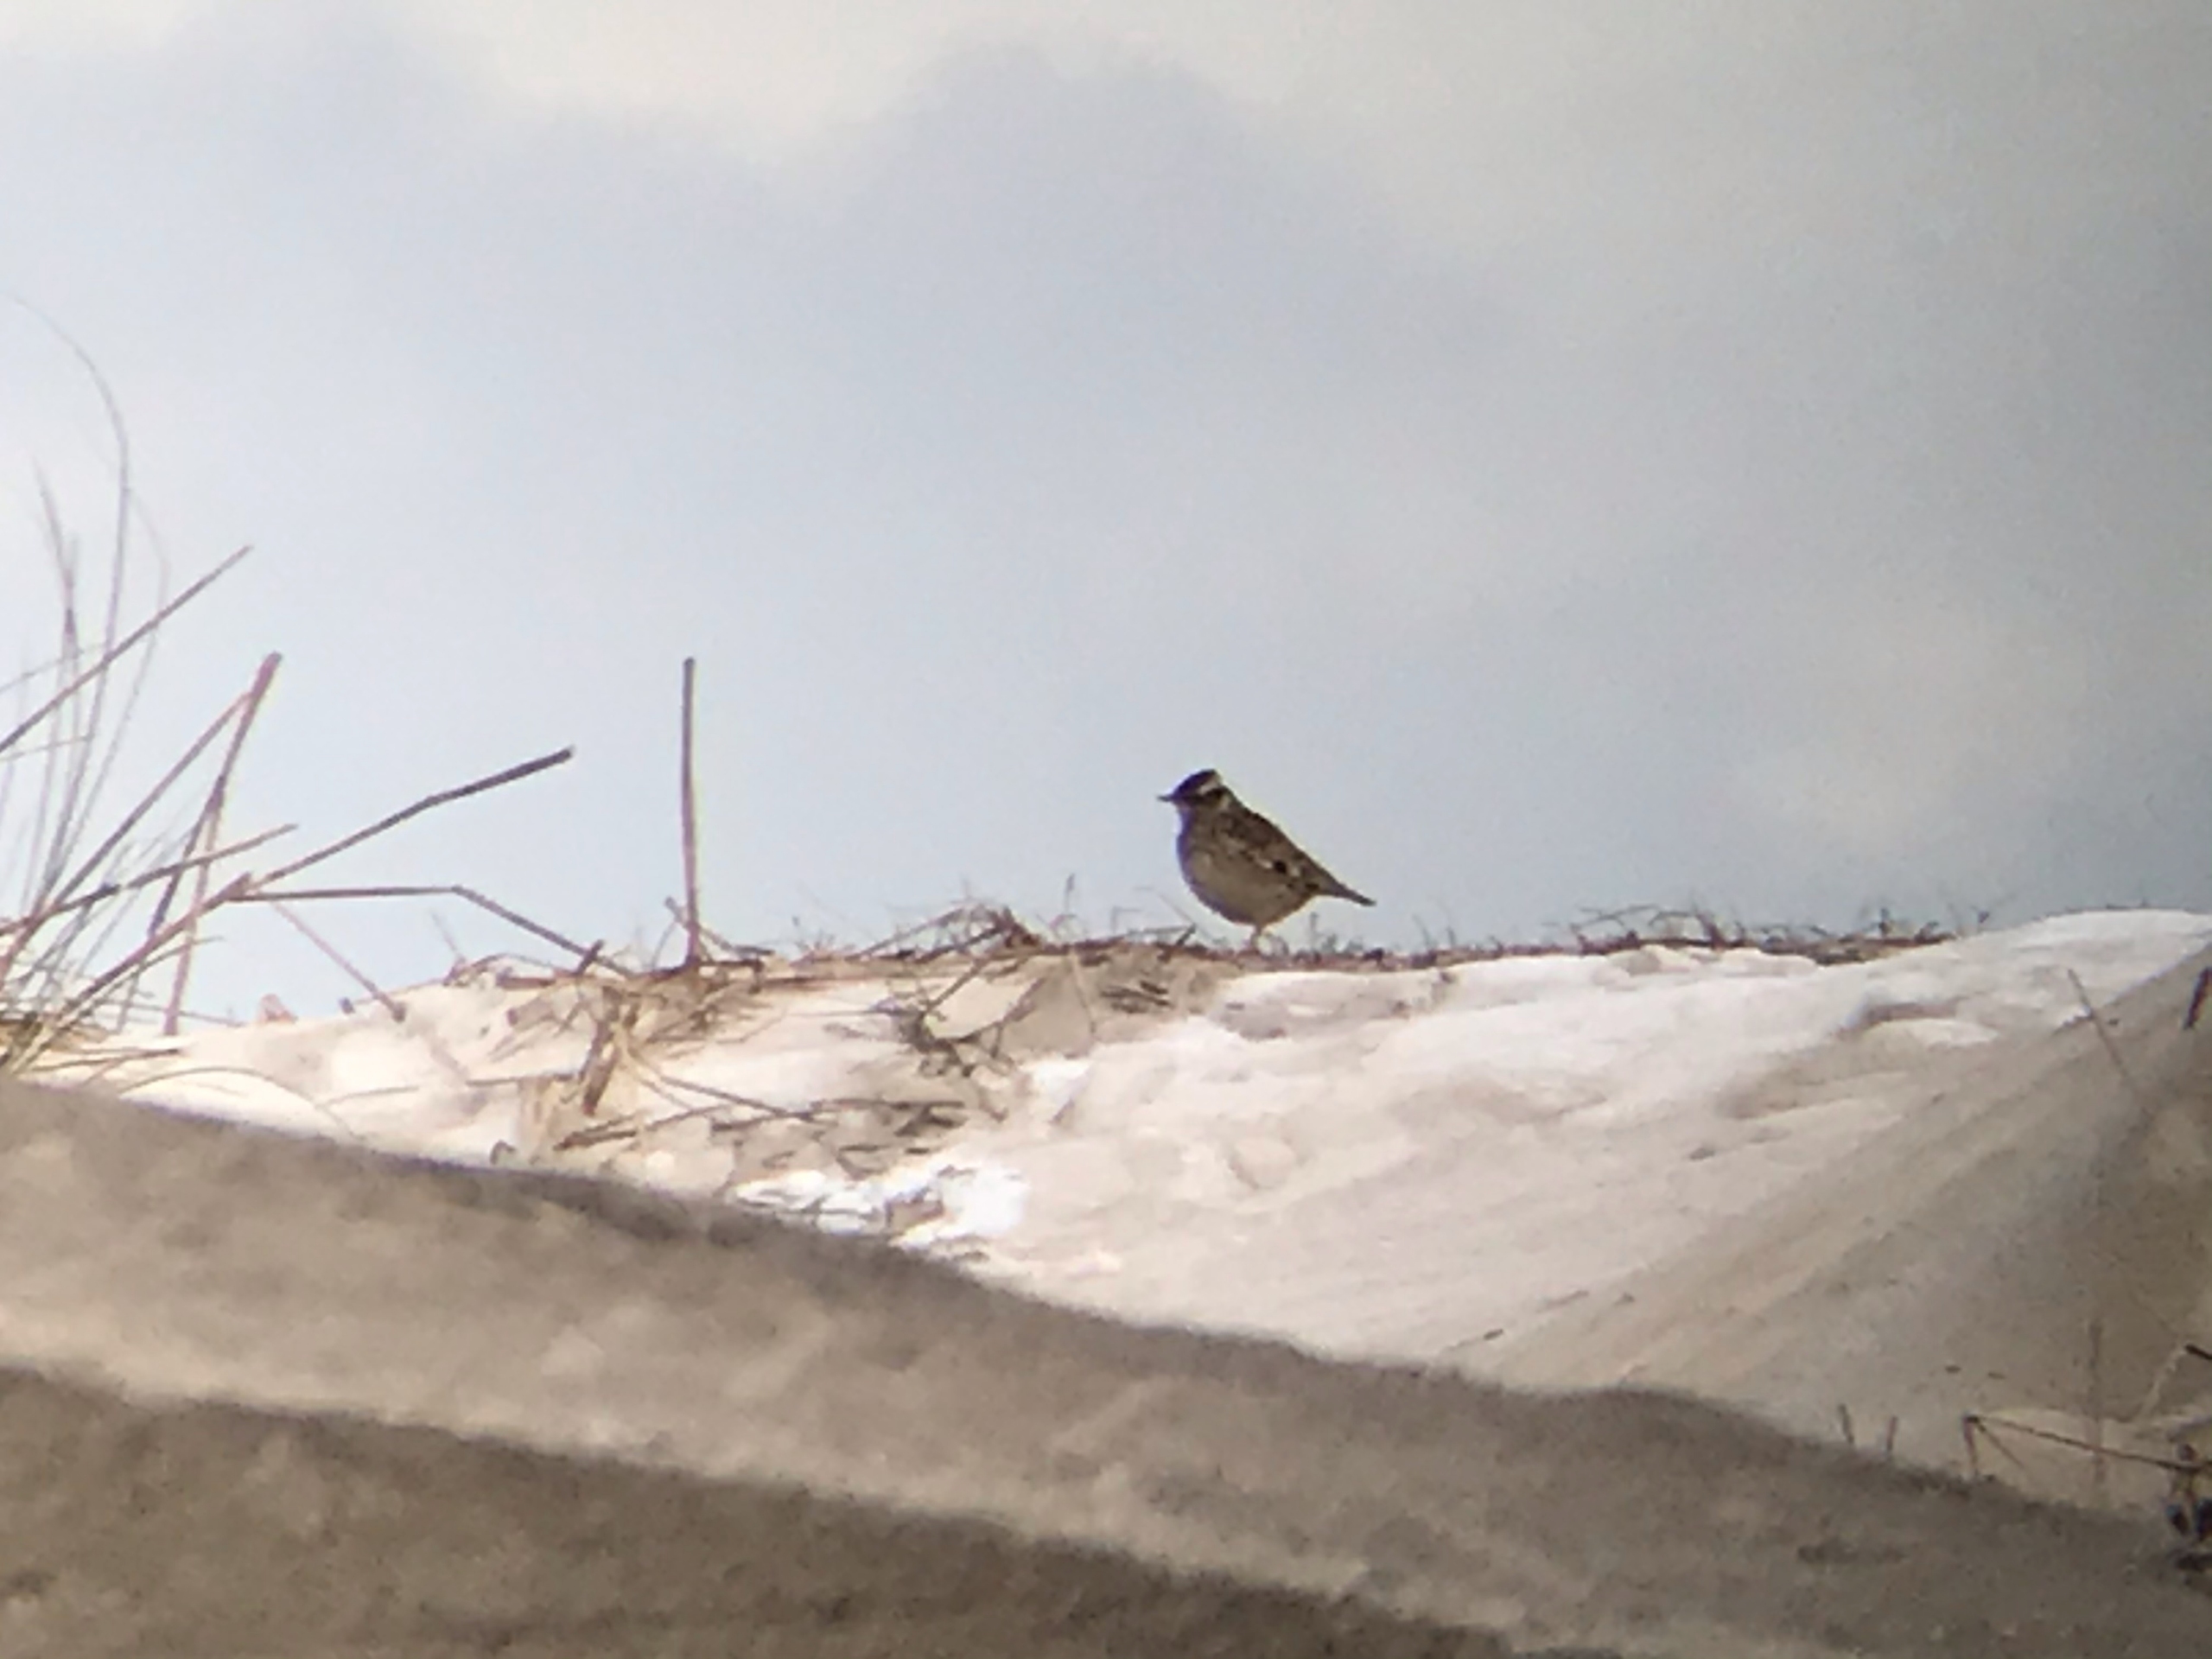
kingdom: Animalia
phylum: Chordata
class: Aves
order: Passeriformes
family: Alaudidae
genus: Lullula
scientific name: Lullula arborea
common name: Hedelærke
